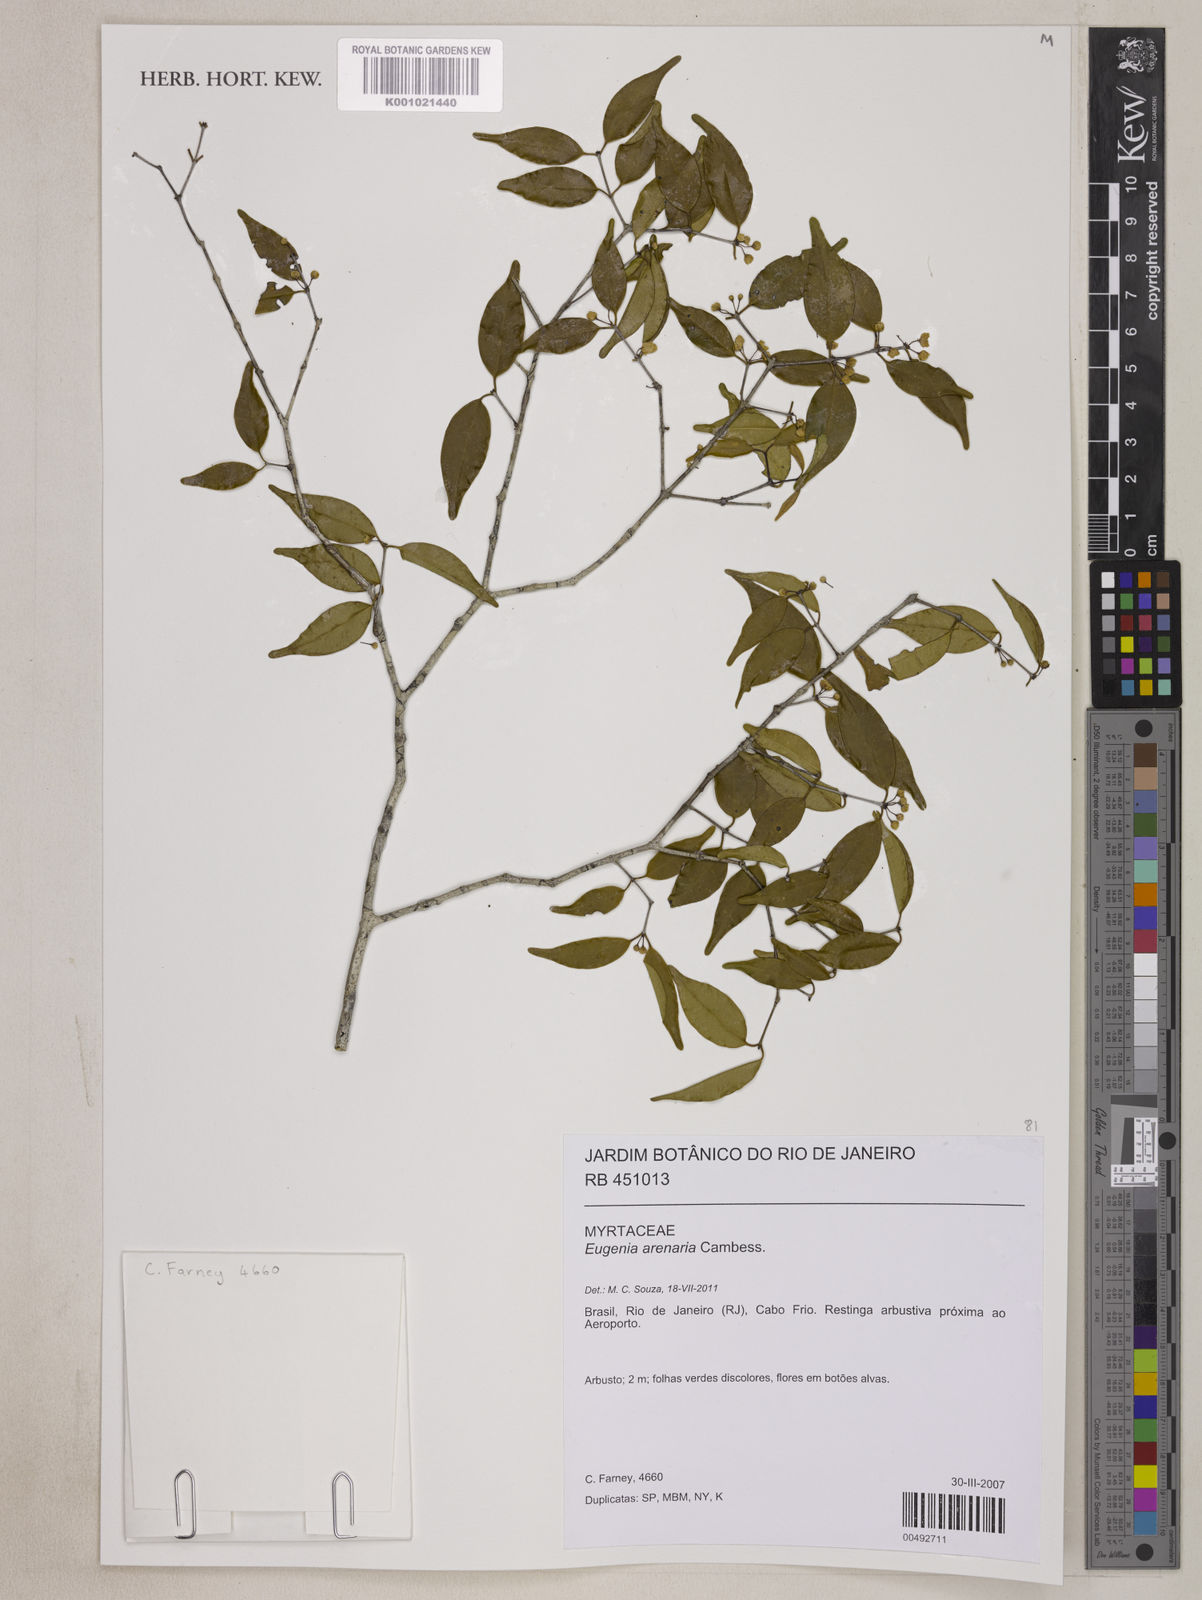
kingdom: Plantae
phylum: Tracheophyta
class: Magnoliopsida
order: Myrtales
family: Myrtaceae
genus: Eugenia
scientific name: Eugenia arenaria
